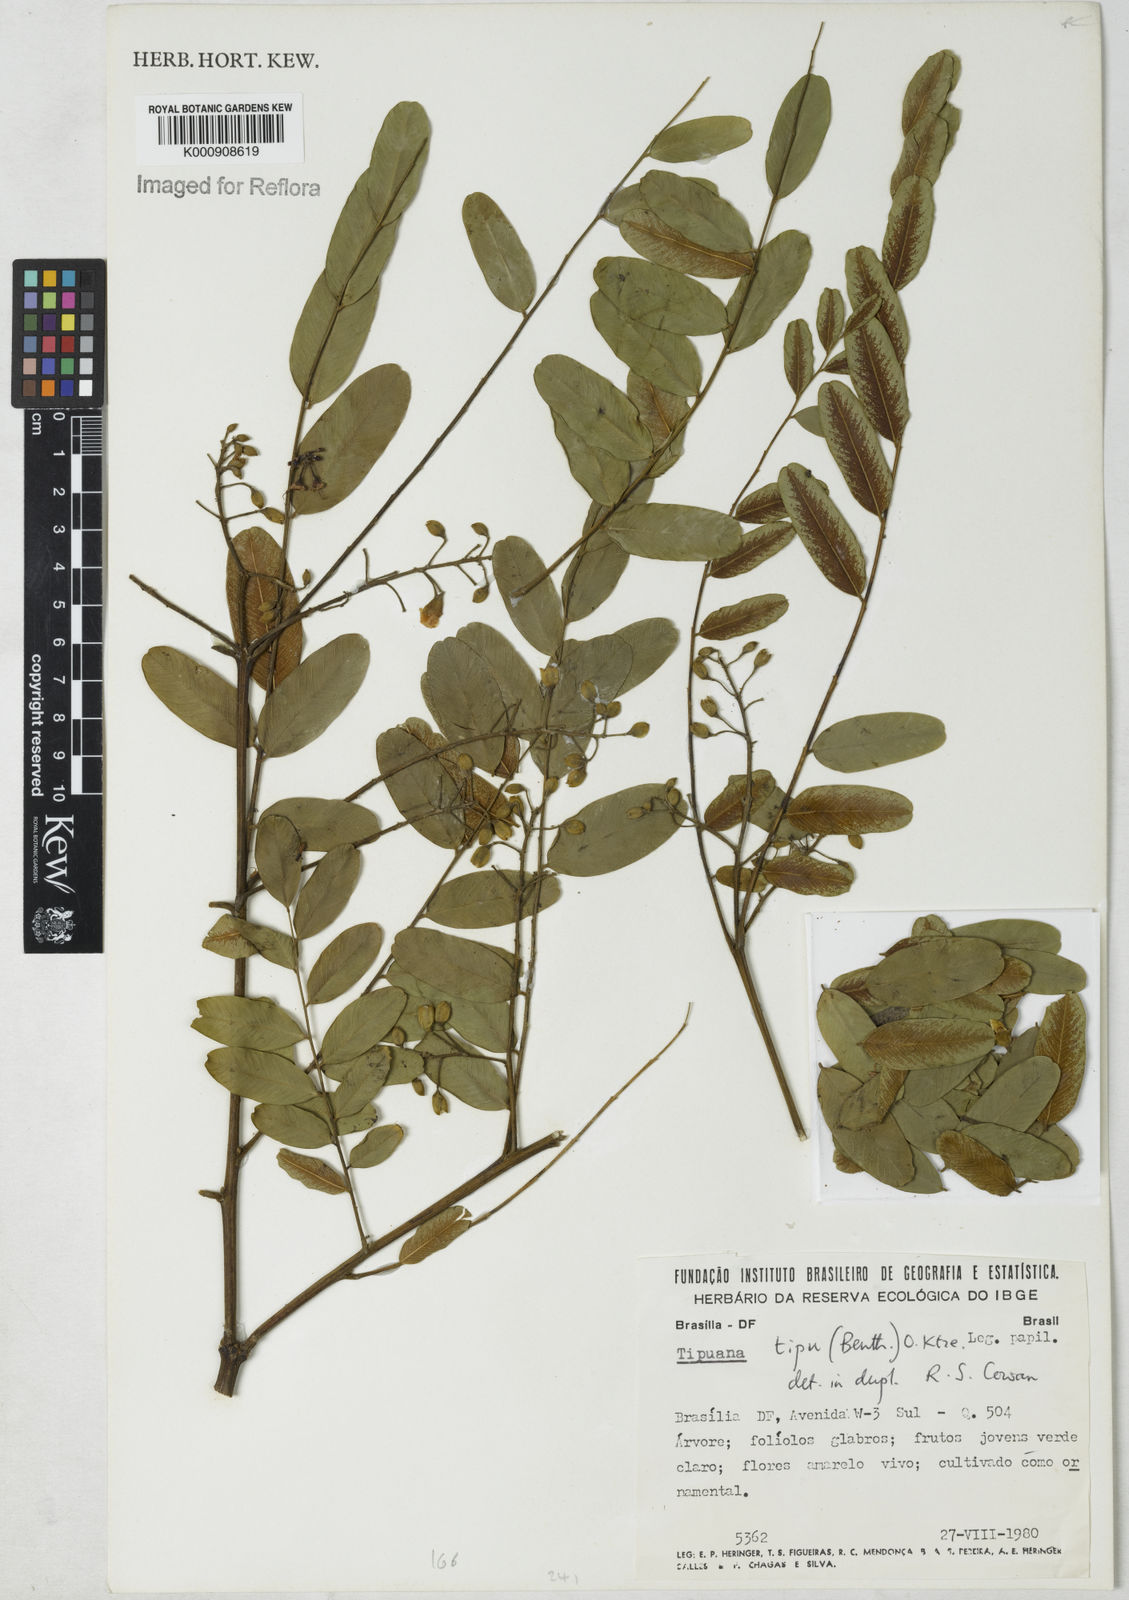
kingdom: Plantae
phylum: Tracheophyta
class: Magnoliopsida
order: Fabales
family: Fabaceae
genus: Tipuana
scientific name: Tipuana tipu
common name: Tiputree
